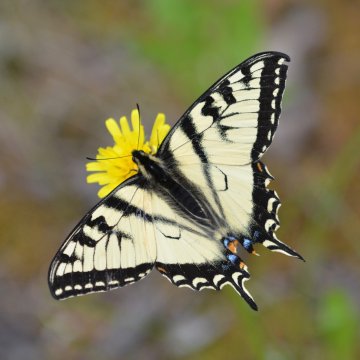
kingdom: Animalia
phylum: Arthropoda
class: Insecta
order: Lepidoptera
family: Papilionidae
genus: Pterourus
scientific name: Pterourus canadensis
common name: Canadian Tiger Swallowtail
